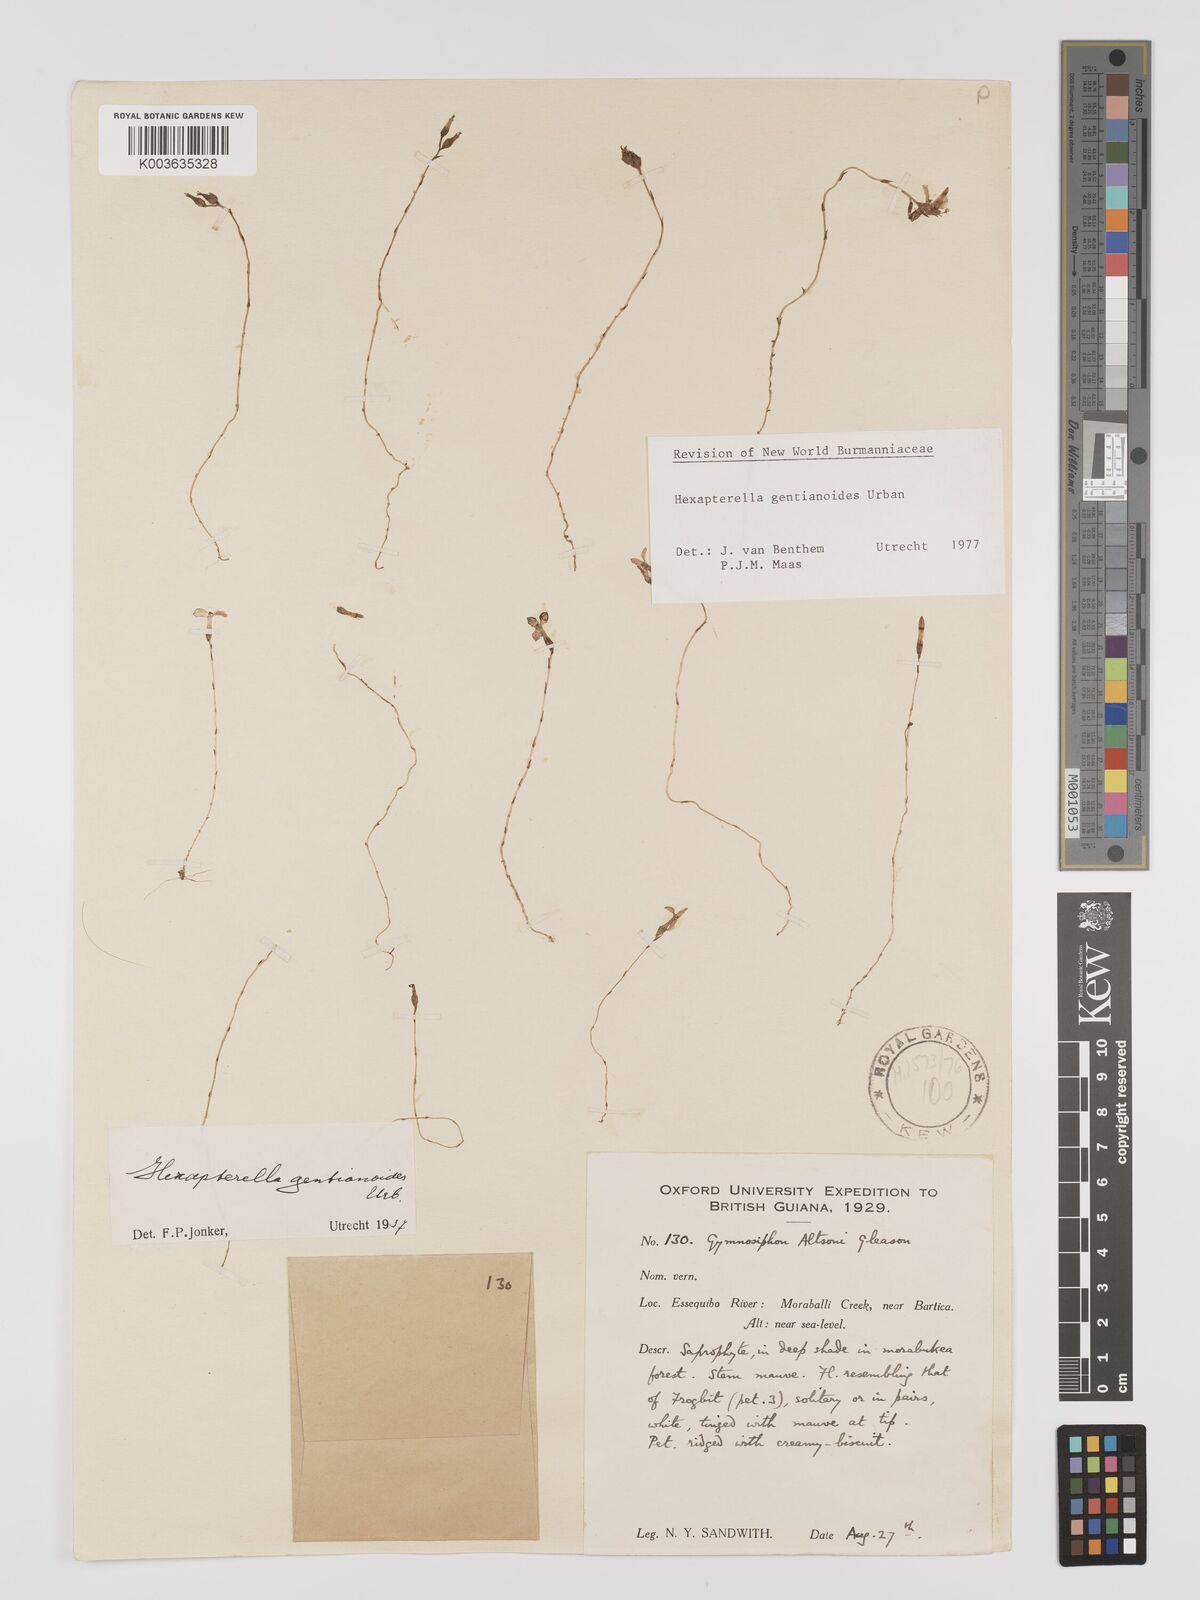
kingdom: Plantae
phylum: Tracheophyta
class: Liliopsida
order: Dioscoreales
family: Burmanniaceae
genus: Hexapterella
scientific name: Hexapterella gentianoides
